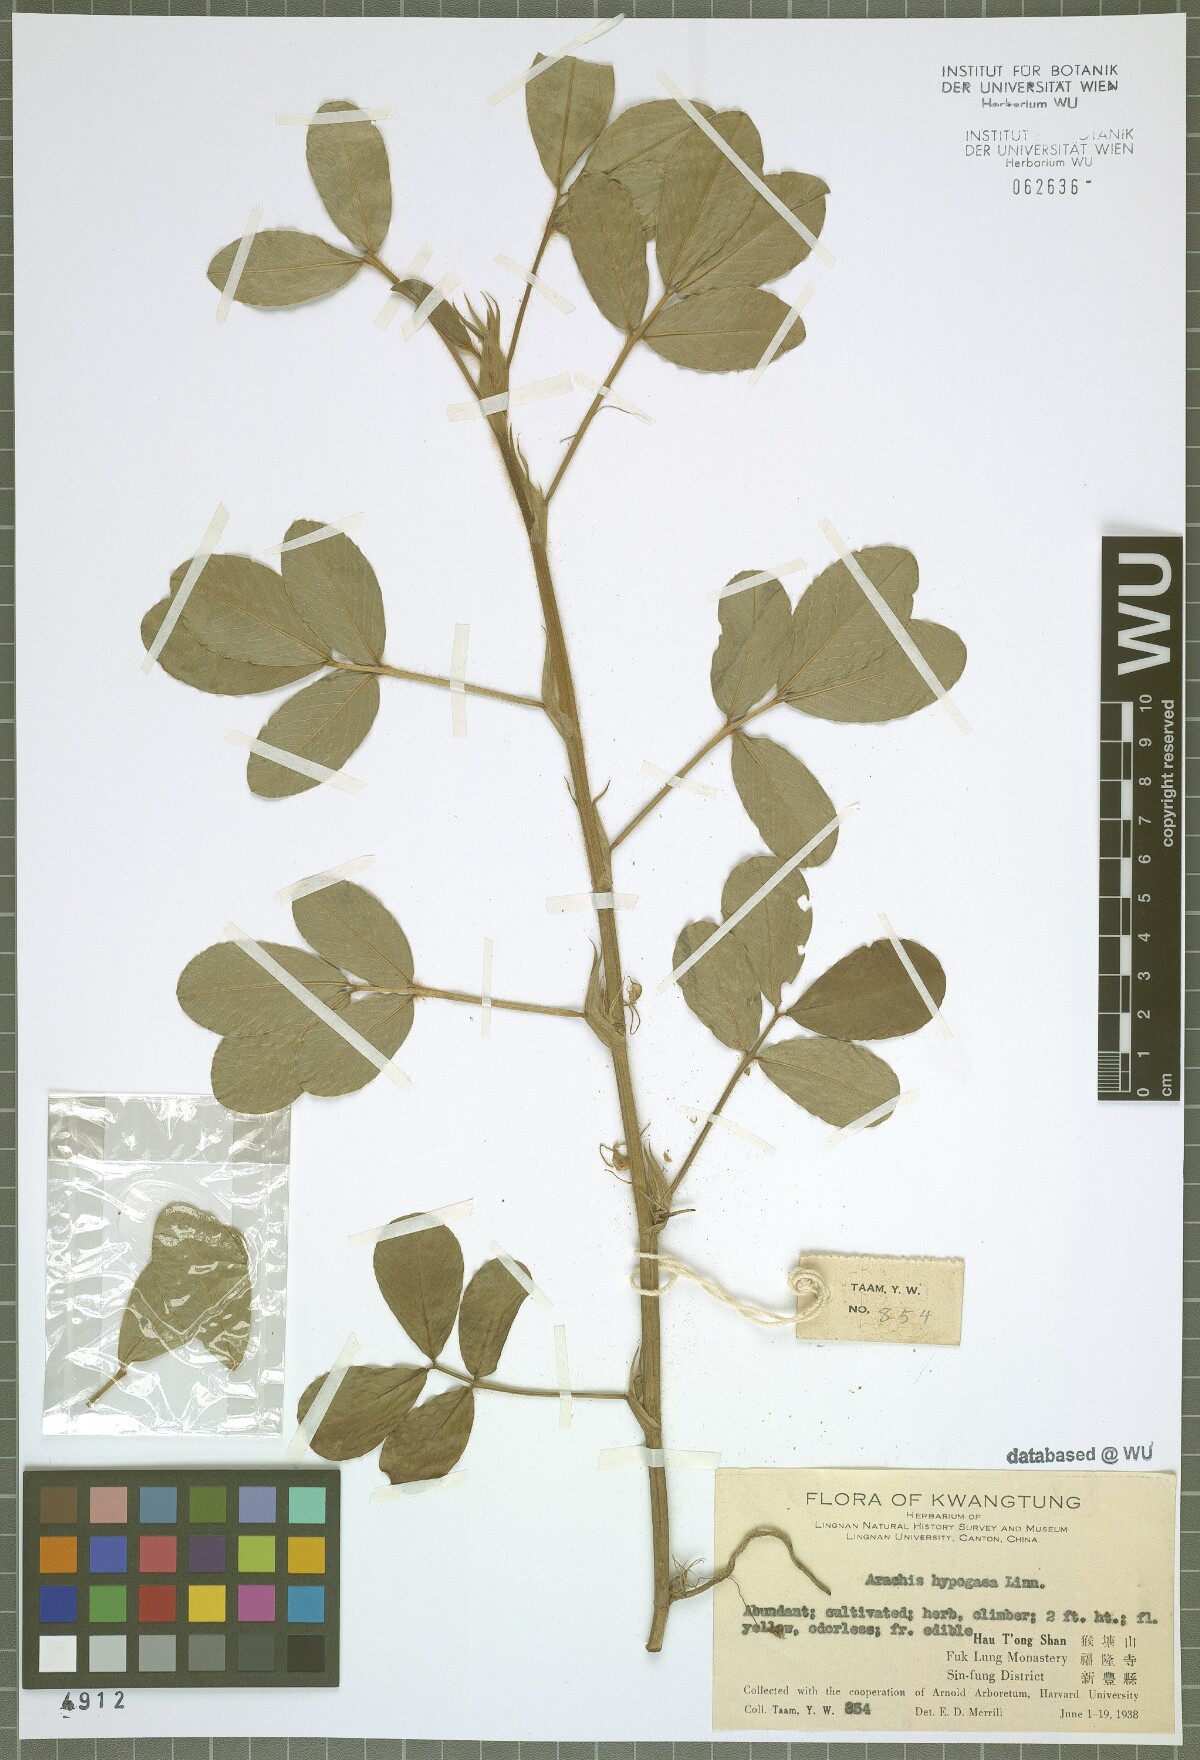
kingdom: Plantae
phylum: Tracheophyta
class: Magnoliopsida
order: Fabales
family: Fabaceae
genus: Arachis
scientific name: Arachis hypogaea
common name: Peanut
